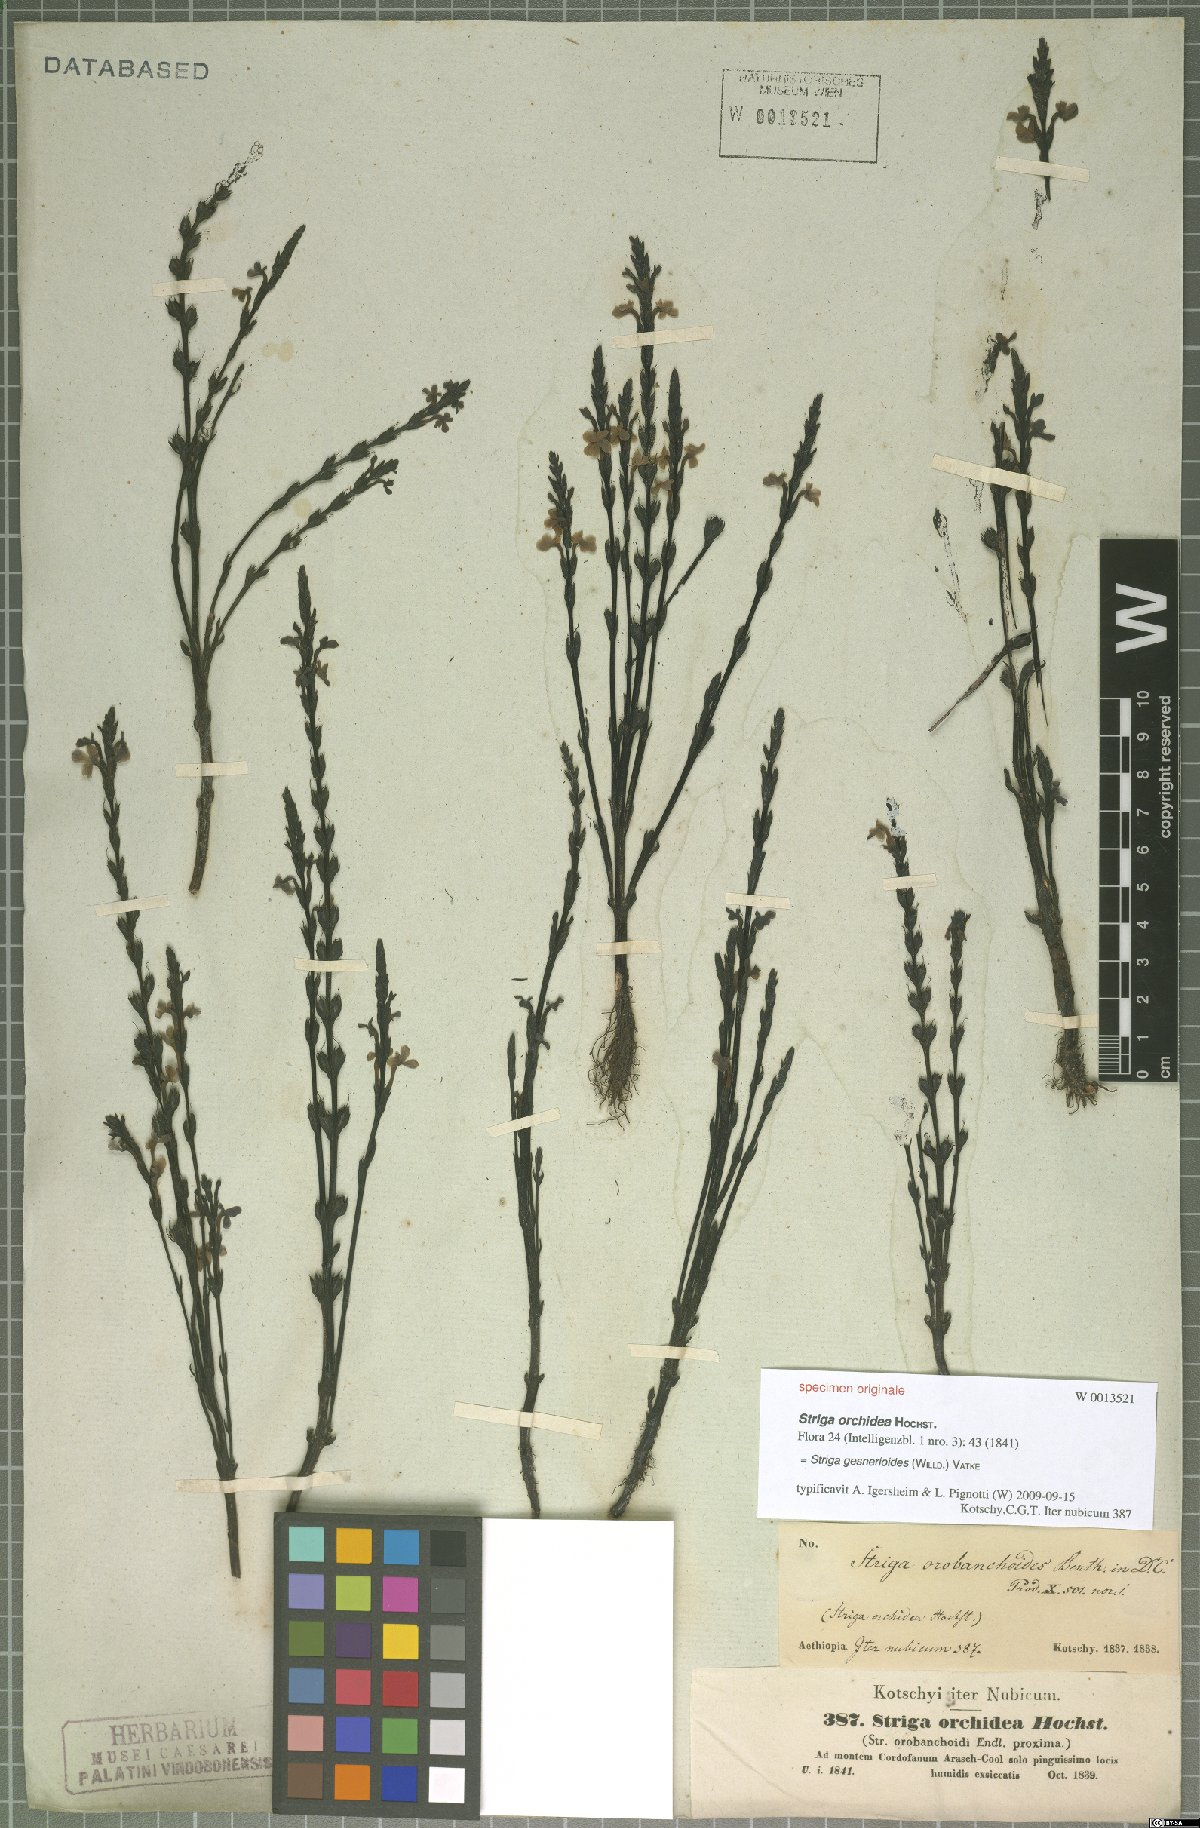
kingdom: Plantae
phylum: Tracheophyta
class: Magnoliopsida
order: Lamiales
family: Orobanchaceae
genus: Striga
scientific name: Striga gesnerioides
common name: Cowpea witchweed
